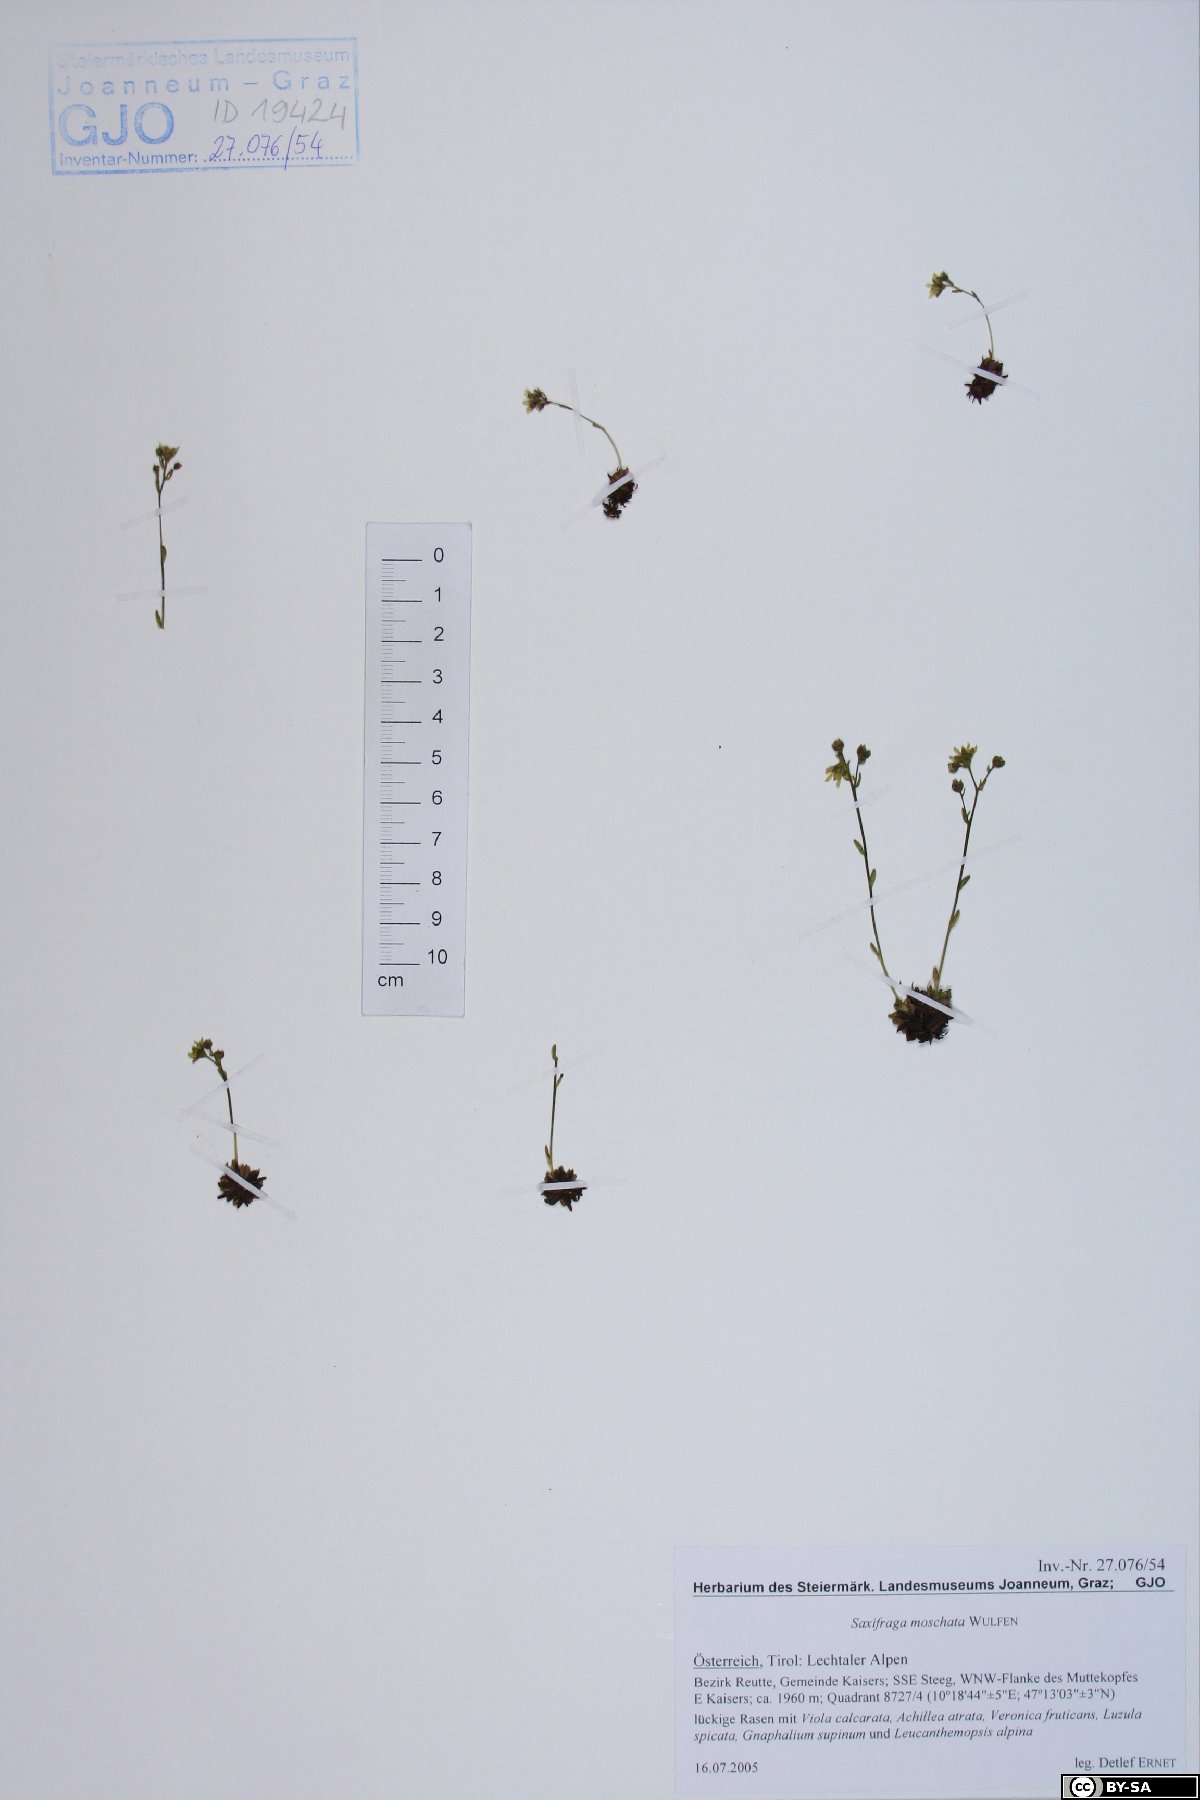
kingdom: Plantae
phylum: Tracheophyta
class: Magnoliopsida
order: Saxifragales
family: Saxifragaceae
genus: Saxifraga
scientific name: Saxifraga moschata
